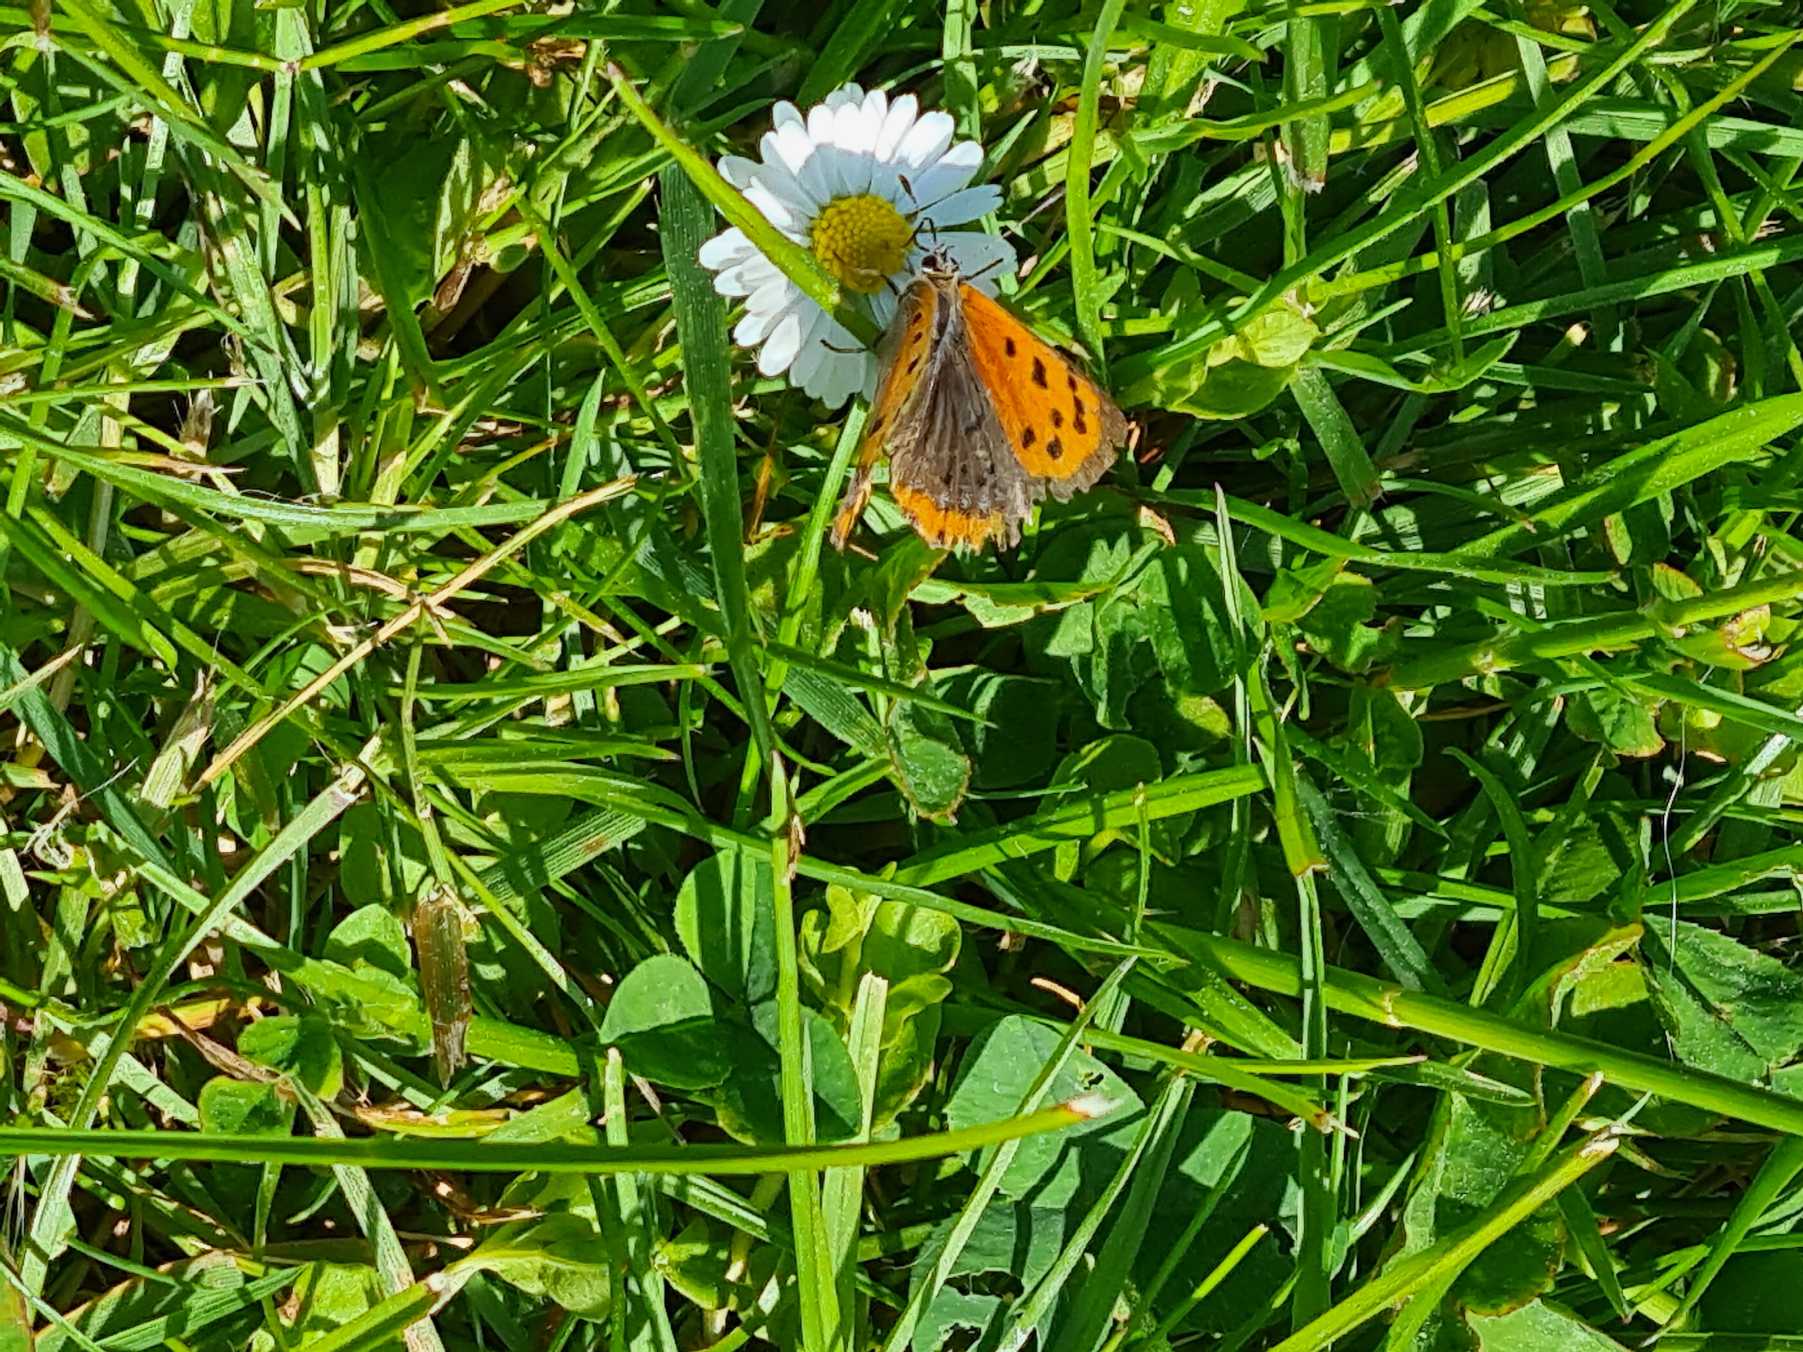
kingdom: Animalia
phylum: Arthropoda
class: Insecta
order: Lepidoptera
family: Lycaenidae
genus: Lycaena
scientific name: Lycaena phlaeas
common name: Lille ildfugl
